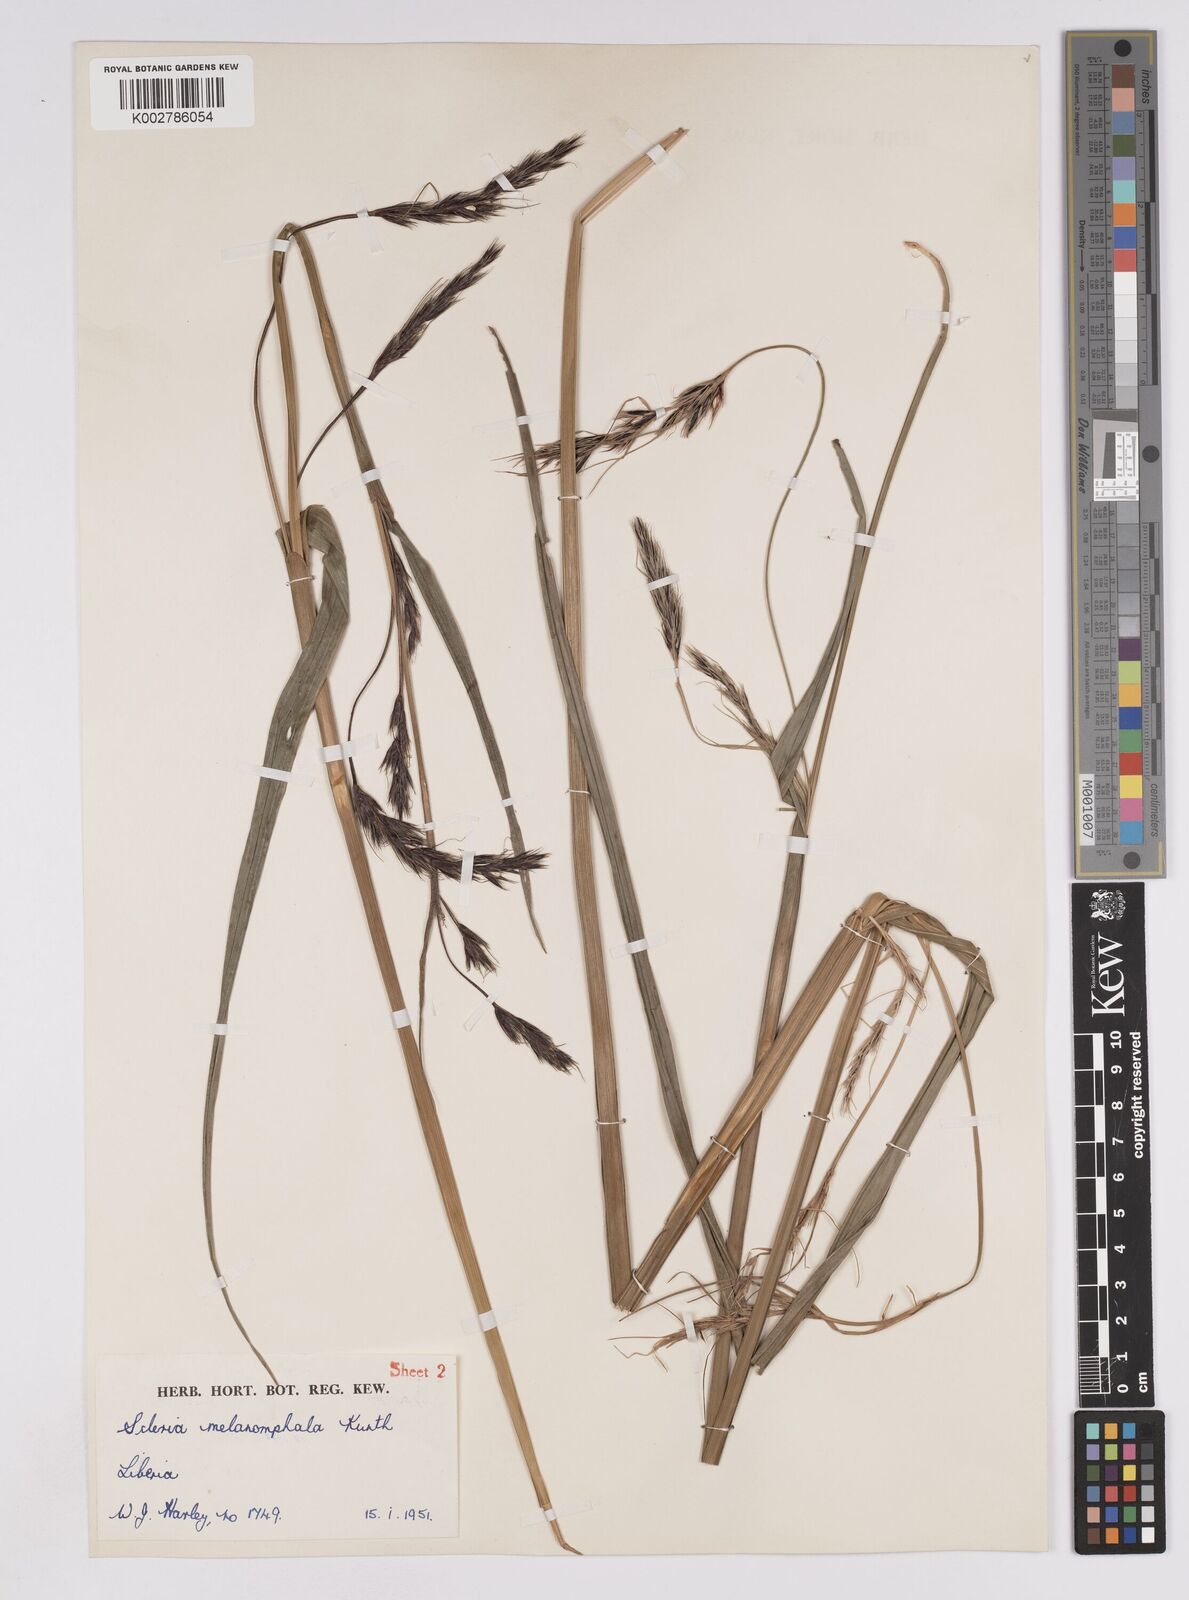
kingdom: Plantae
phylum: Tracheophyta
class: Liliopsida
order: Poales
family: Cyperaceae
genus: Scleria
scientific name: Scleria melanomphala
